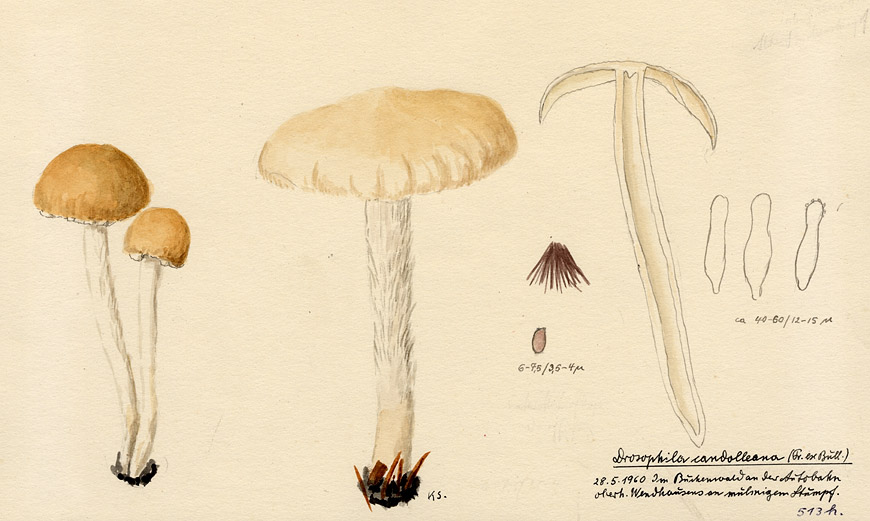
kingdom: Fungi
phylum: Basidiomycota
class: Agaricomycetes
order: Agaricales
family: Psathyrellaceae
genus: Candolleomyces
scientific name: Candolleomyces candolleanus
